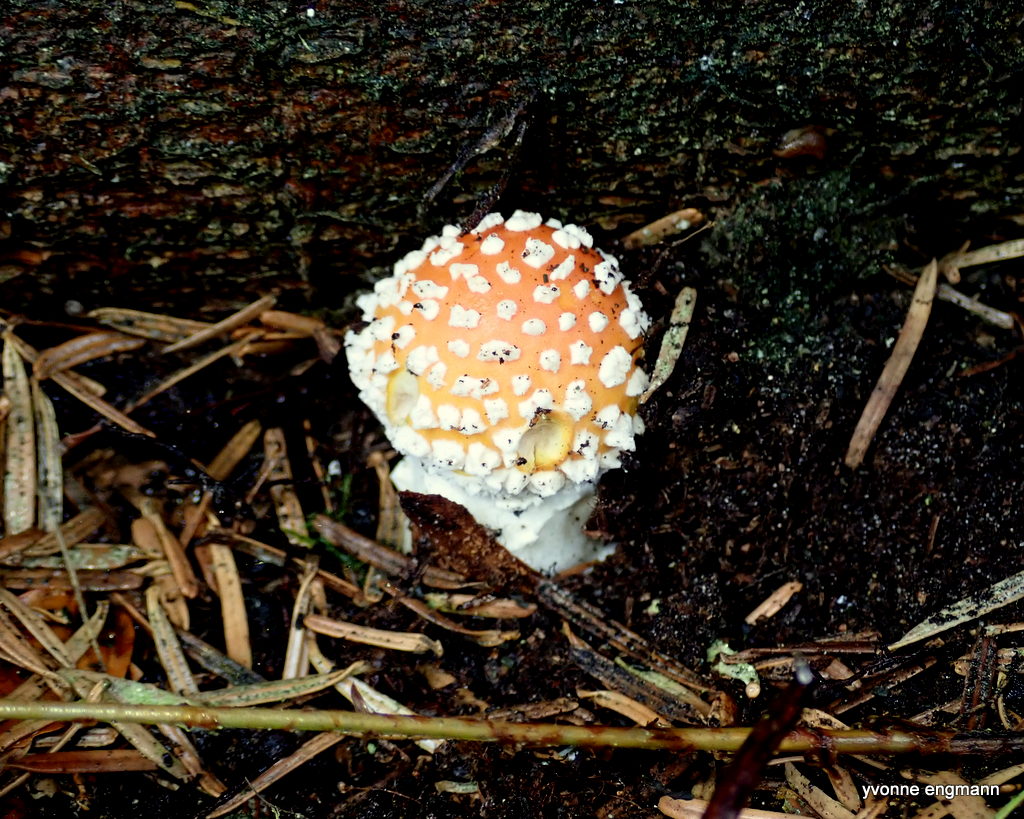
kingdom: Fungi
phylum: Basidiomycota
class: Agaricomycetes
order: Agaricales
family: Amanitaceae
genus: Amanita
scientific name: Amanita muscaria
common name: rød fluesvamp
